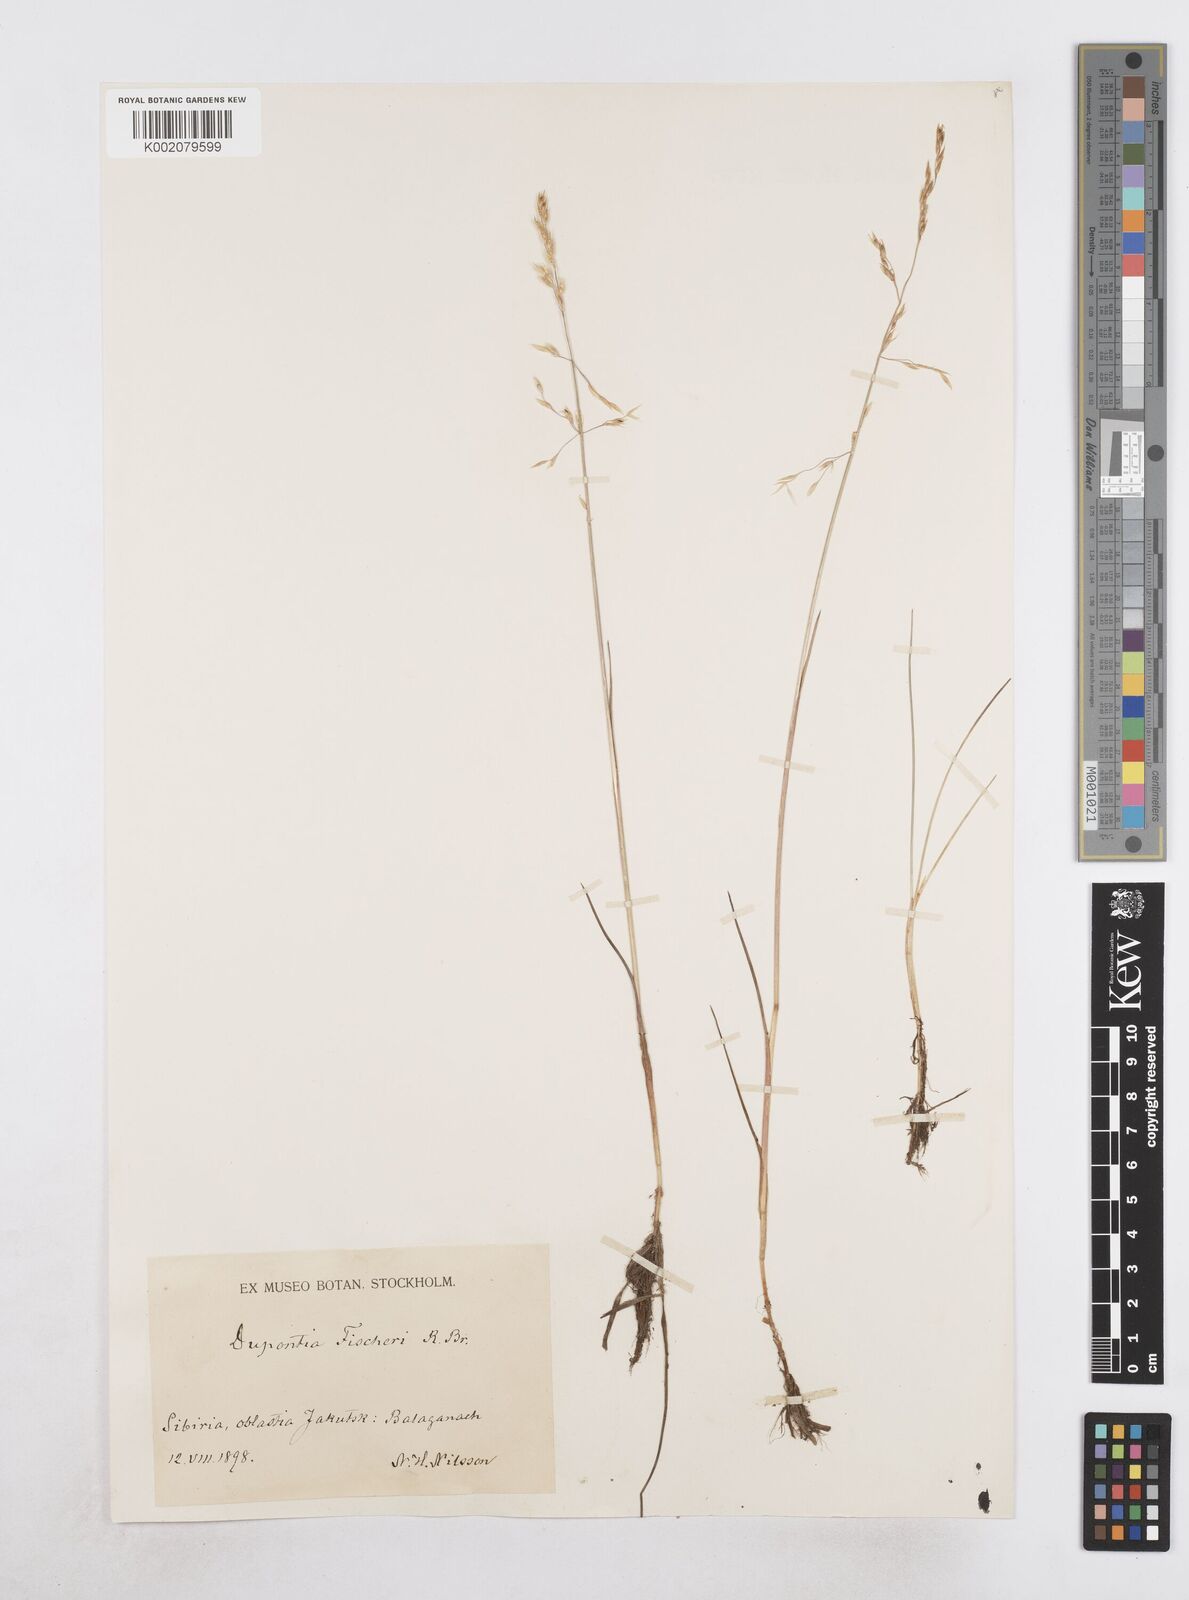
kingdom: Plantae
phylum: Tracheophyta
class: Liliopsida
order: Poales
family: Poaceae
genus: Dupontia
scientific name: Dupontia fisheri
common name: Tundra grass
